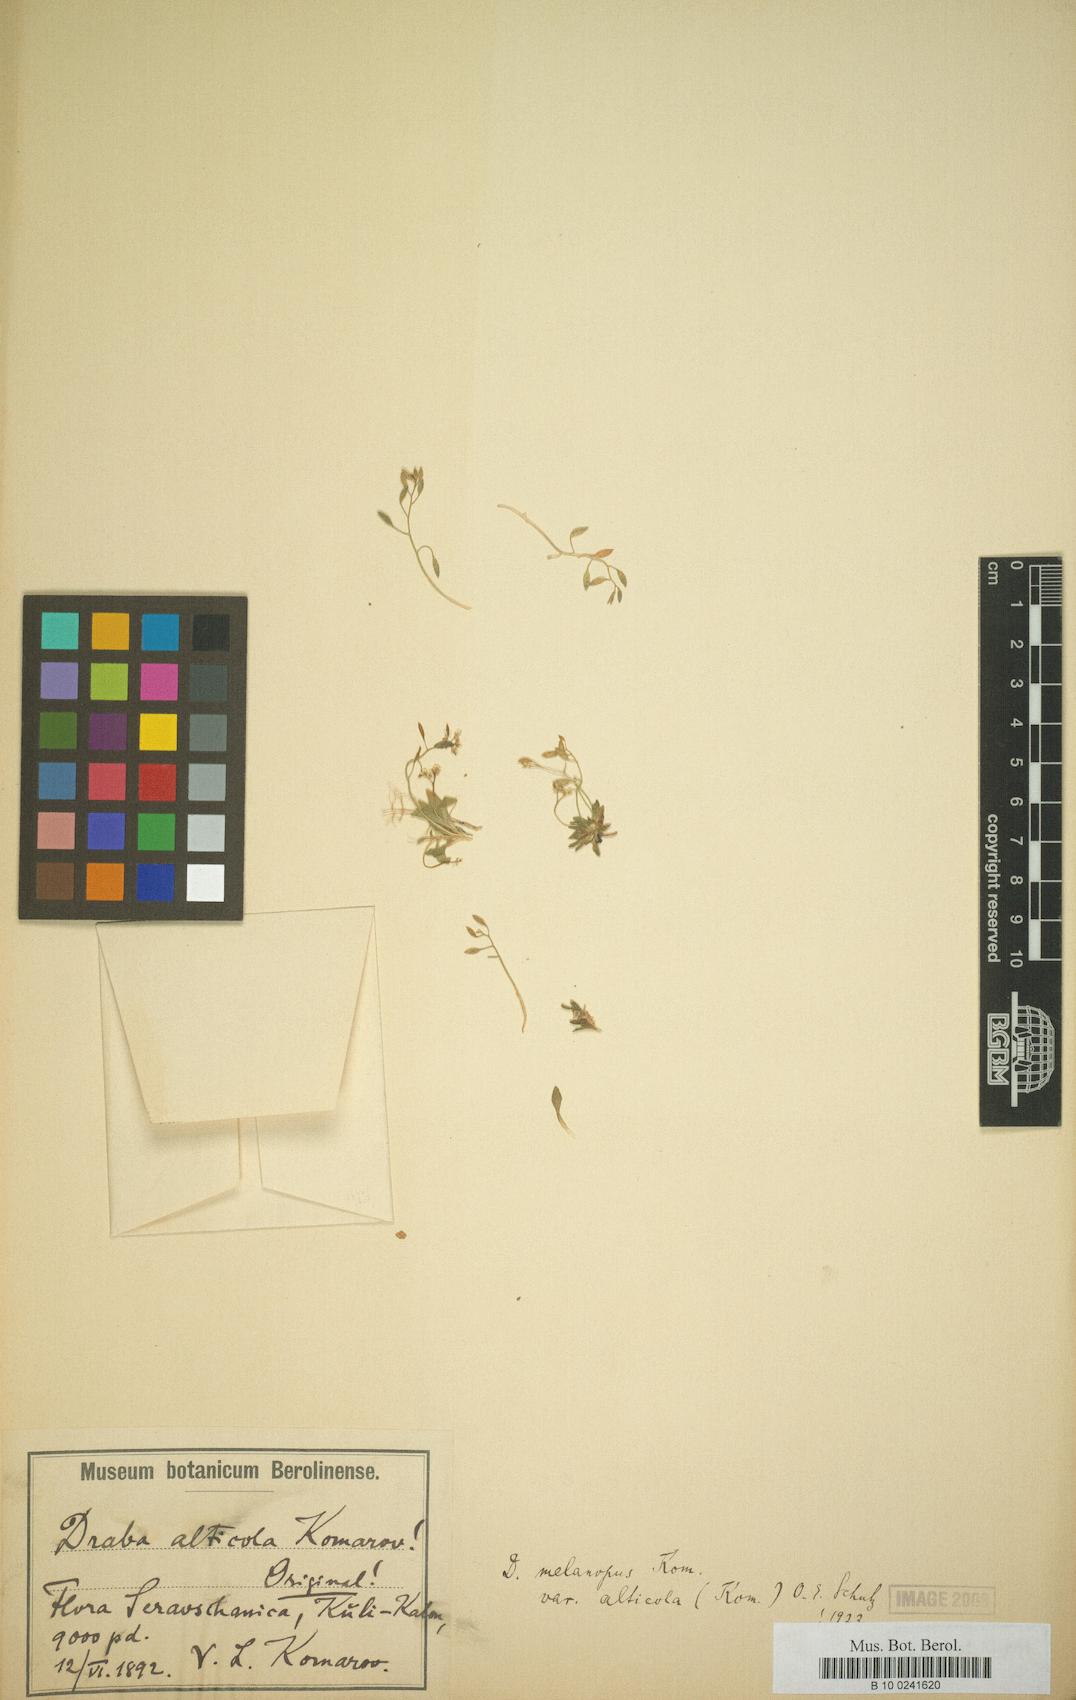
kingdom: Plantae
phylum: Tracheophyta
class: Magnoliopsida
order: Brassicales
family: Brassicaceae
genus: Draba
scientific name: Draba alticola
